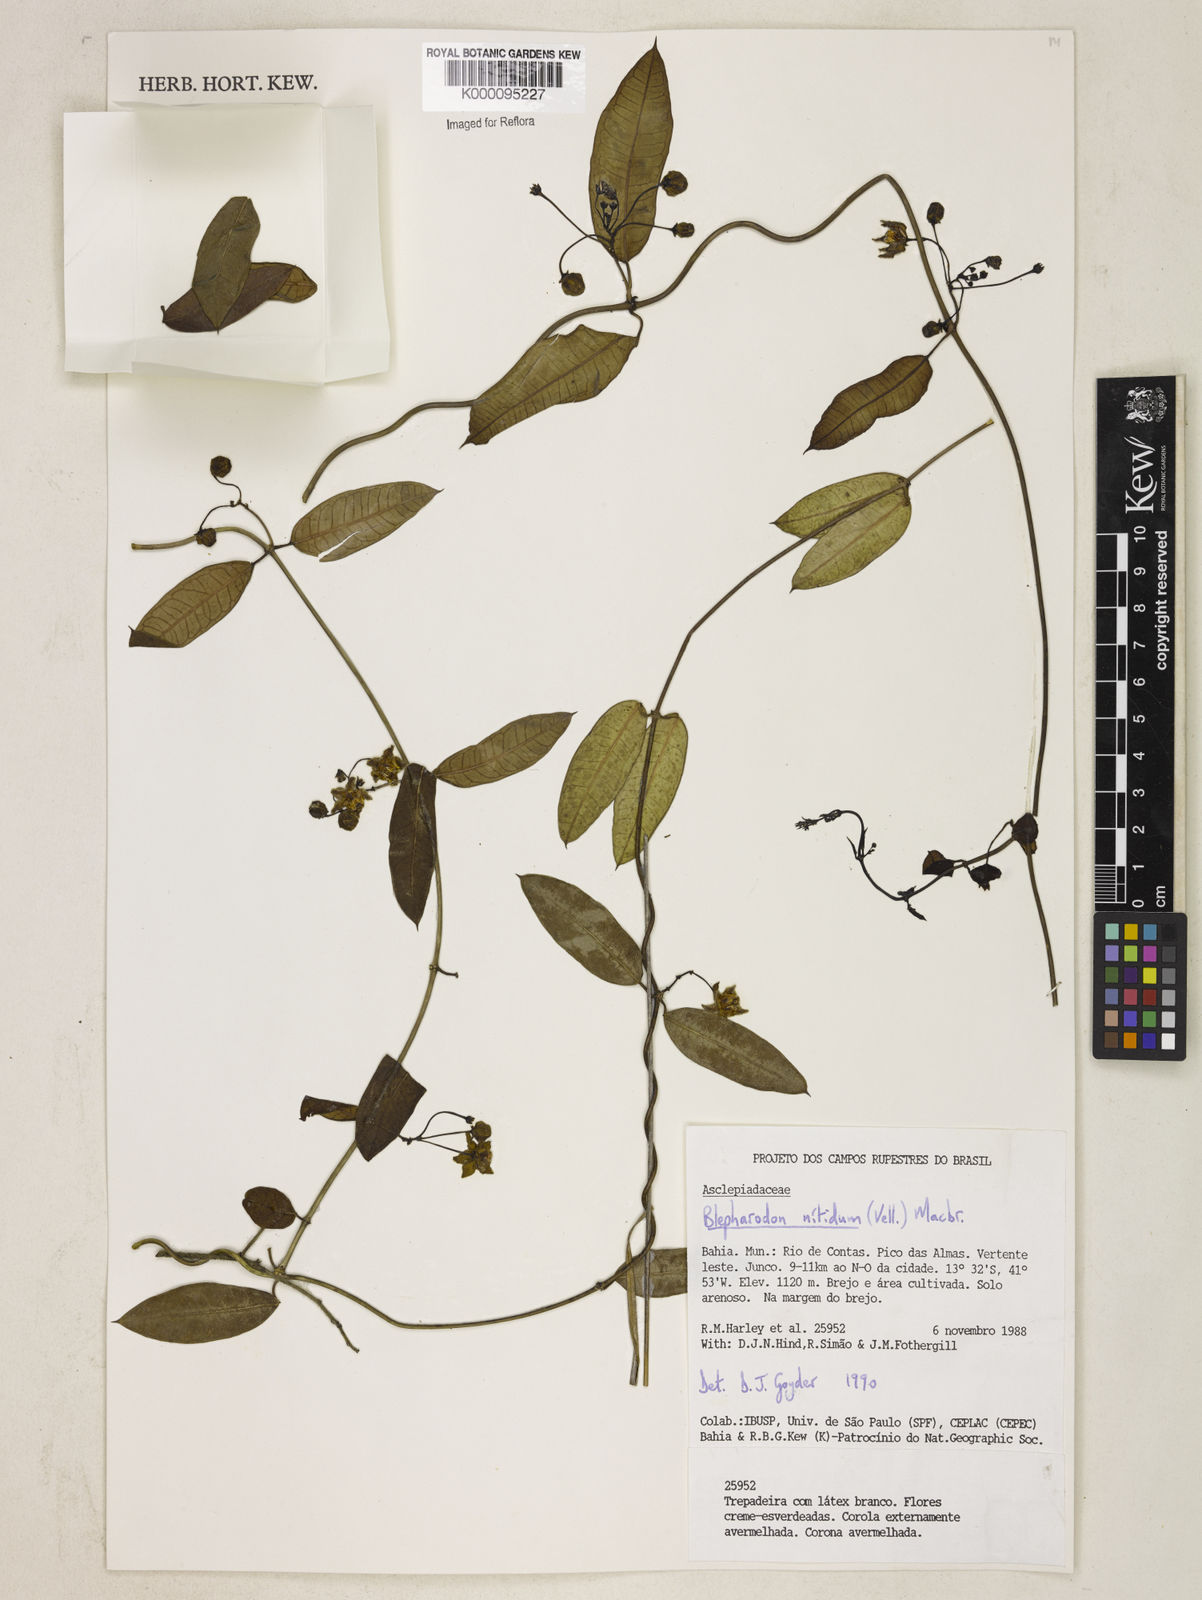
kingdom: Plantae
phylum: Tracheophyta
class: Magnoliopsida
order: Gentianales
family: Apocynaceae
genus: Blepharodon
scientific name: Blepharodon pictum
